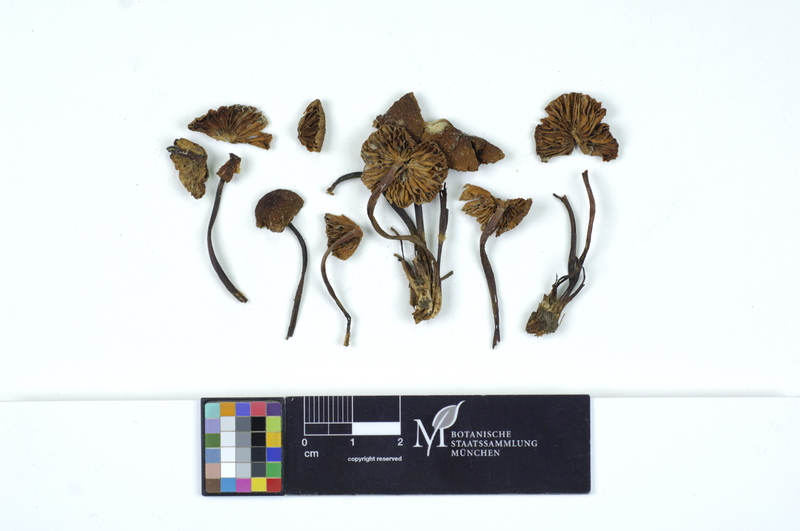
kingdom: Fungi
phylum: Basidiomycota
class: Agaricomycetes
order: Agaricales
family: Mycenaceae
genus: Mycena
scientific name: Mycena inclinata
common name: Clustered bonnet
